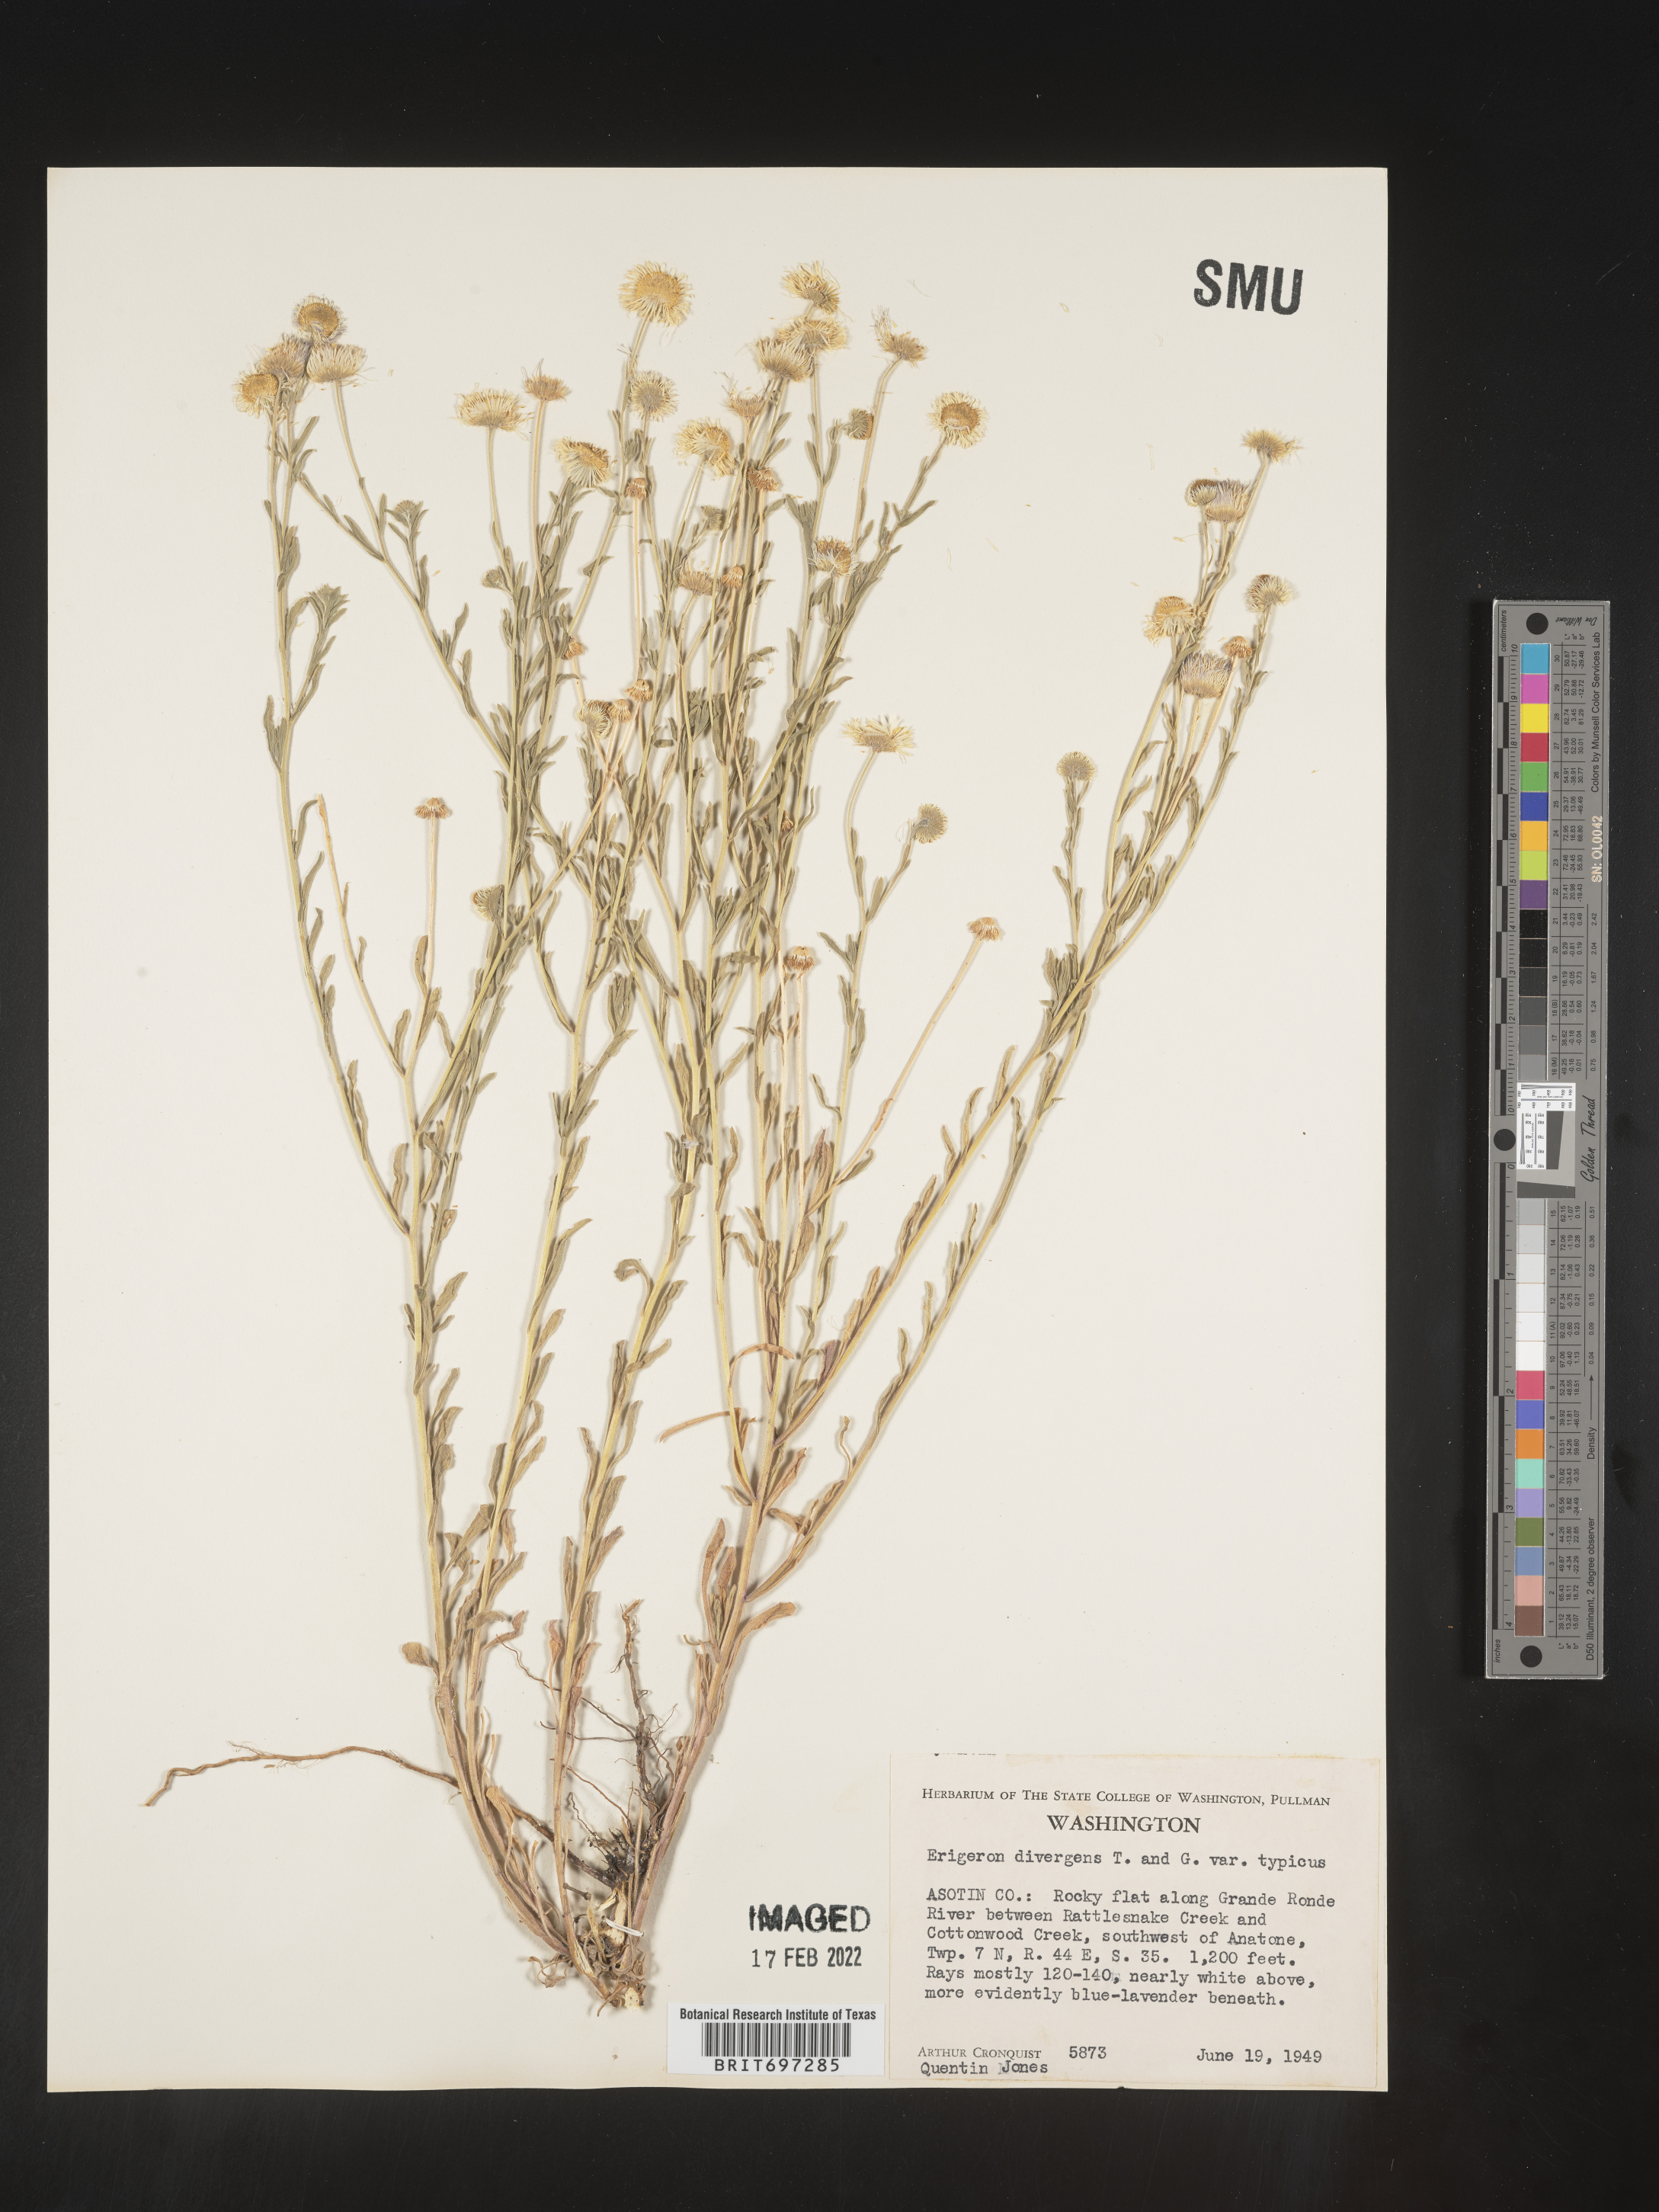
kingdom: Plantae
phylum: Tracheophyta
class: Magnoliopsida
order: Asterales
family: Asteraceae
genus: Erigeron
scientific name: Erigeron divergens
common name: Diffuse fleabane
